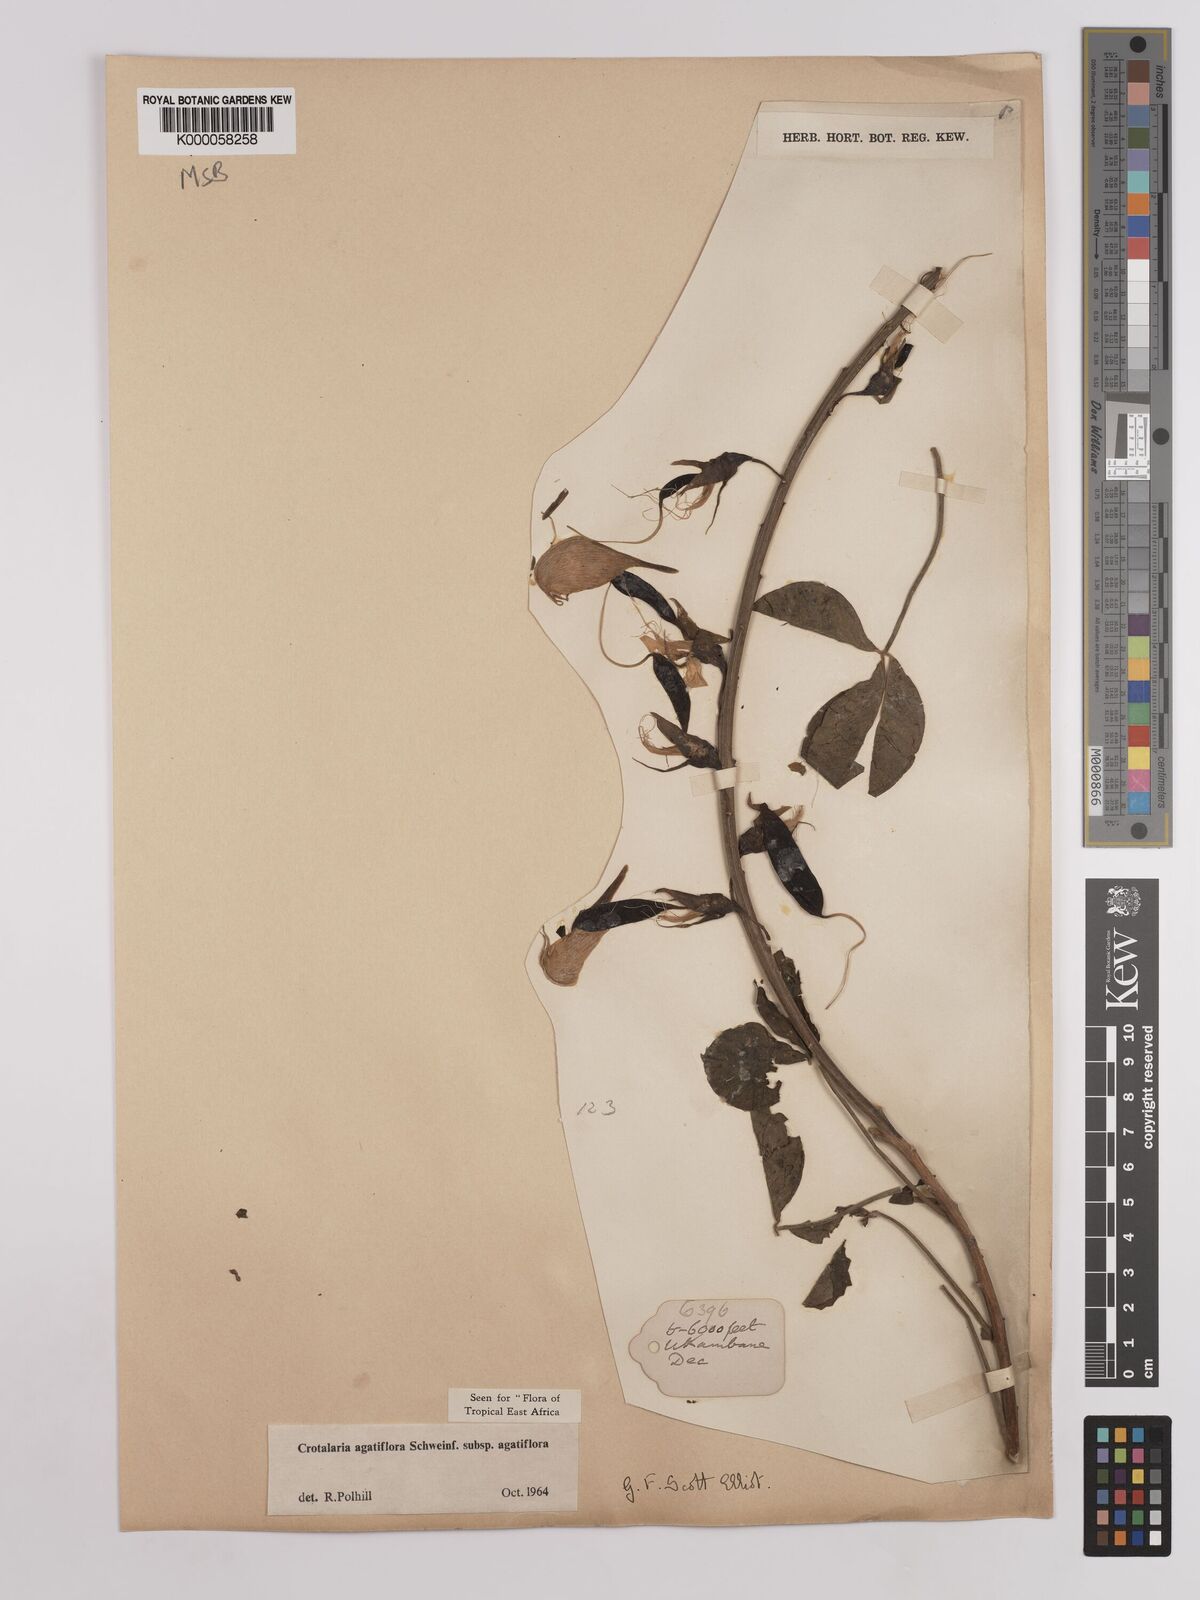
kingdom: Plantae
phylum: Tracheophyta
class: Magnoliopsida
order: Fabales
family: Fabaceae
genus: Crotalaria
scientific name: Crotalaria pseudospartium
